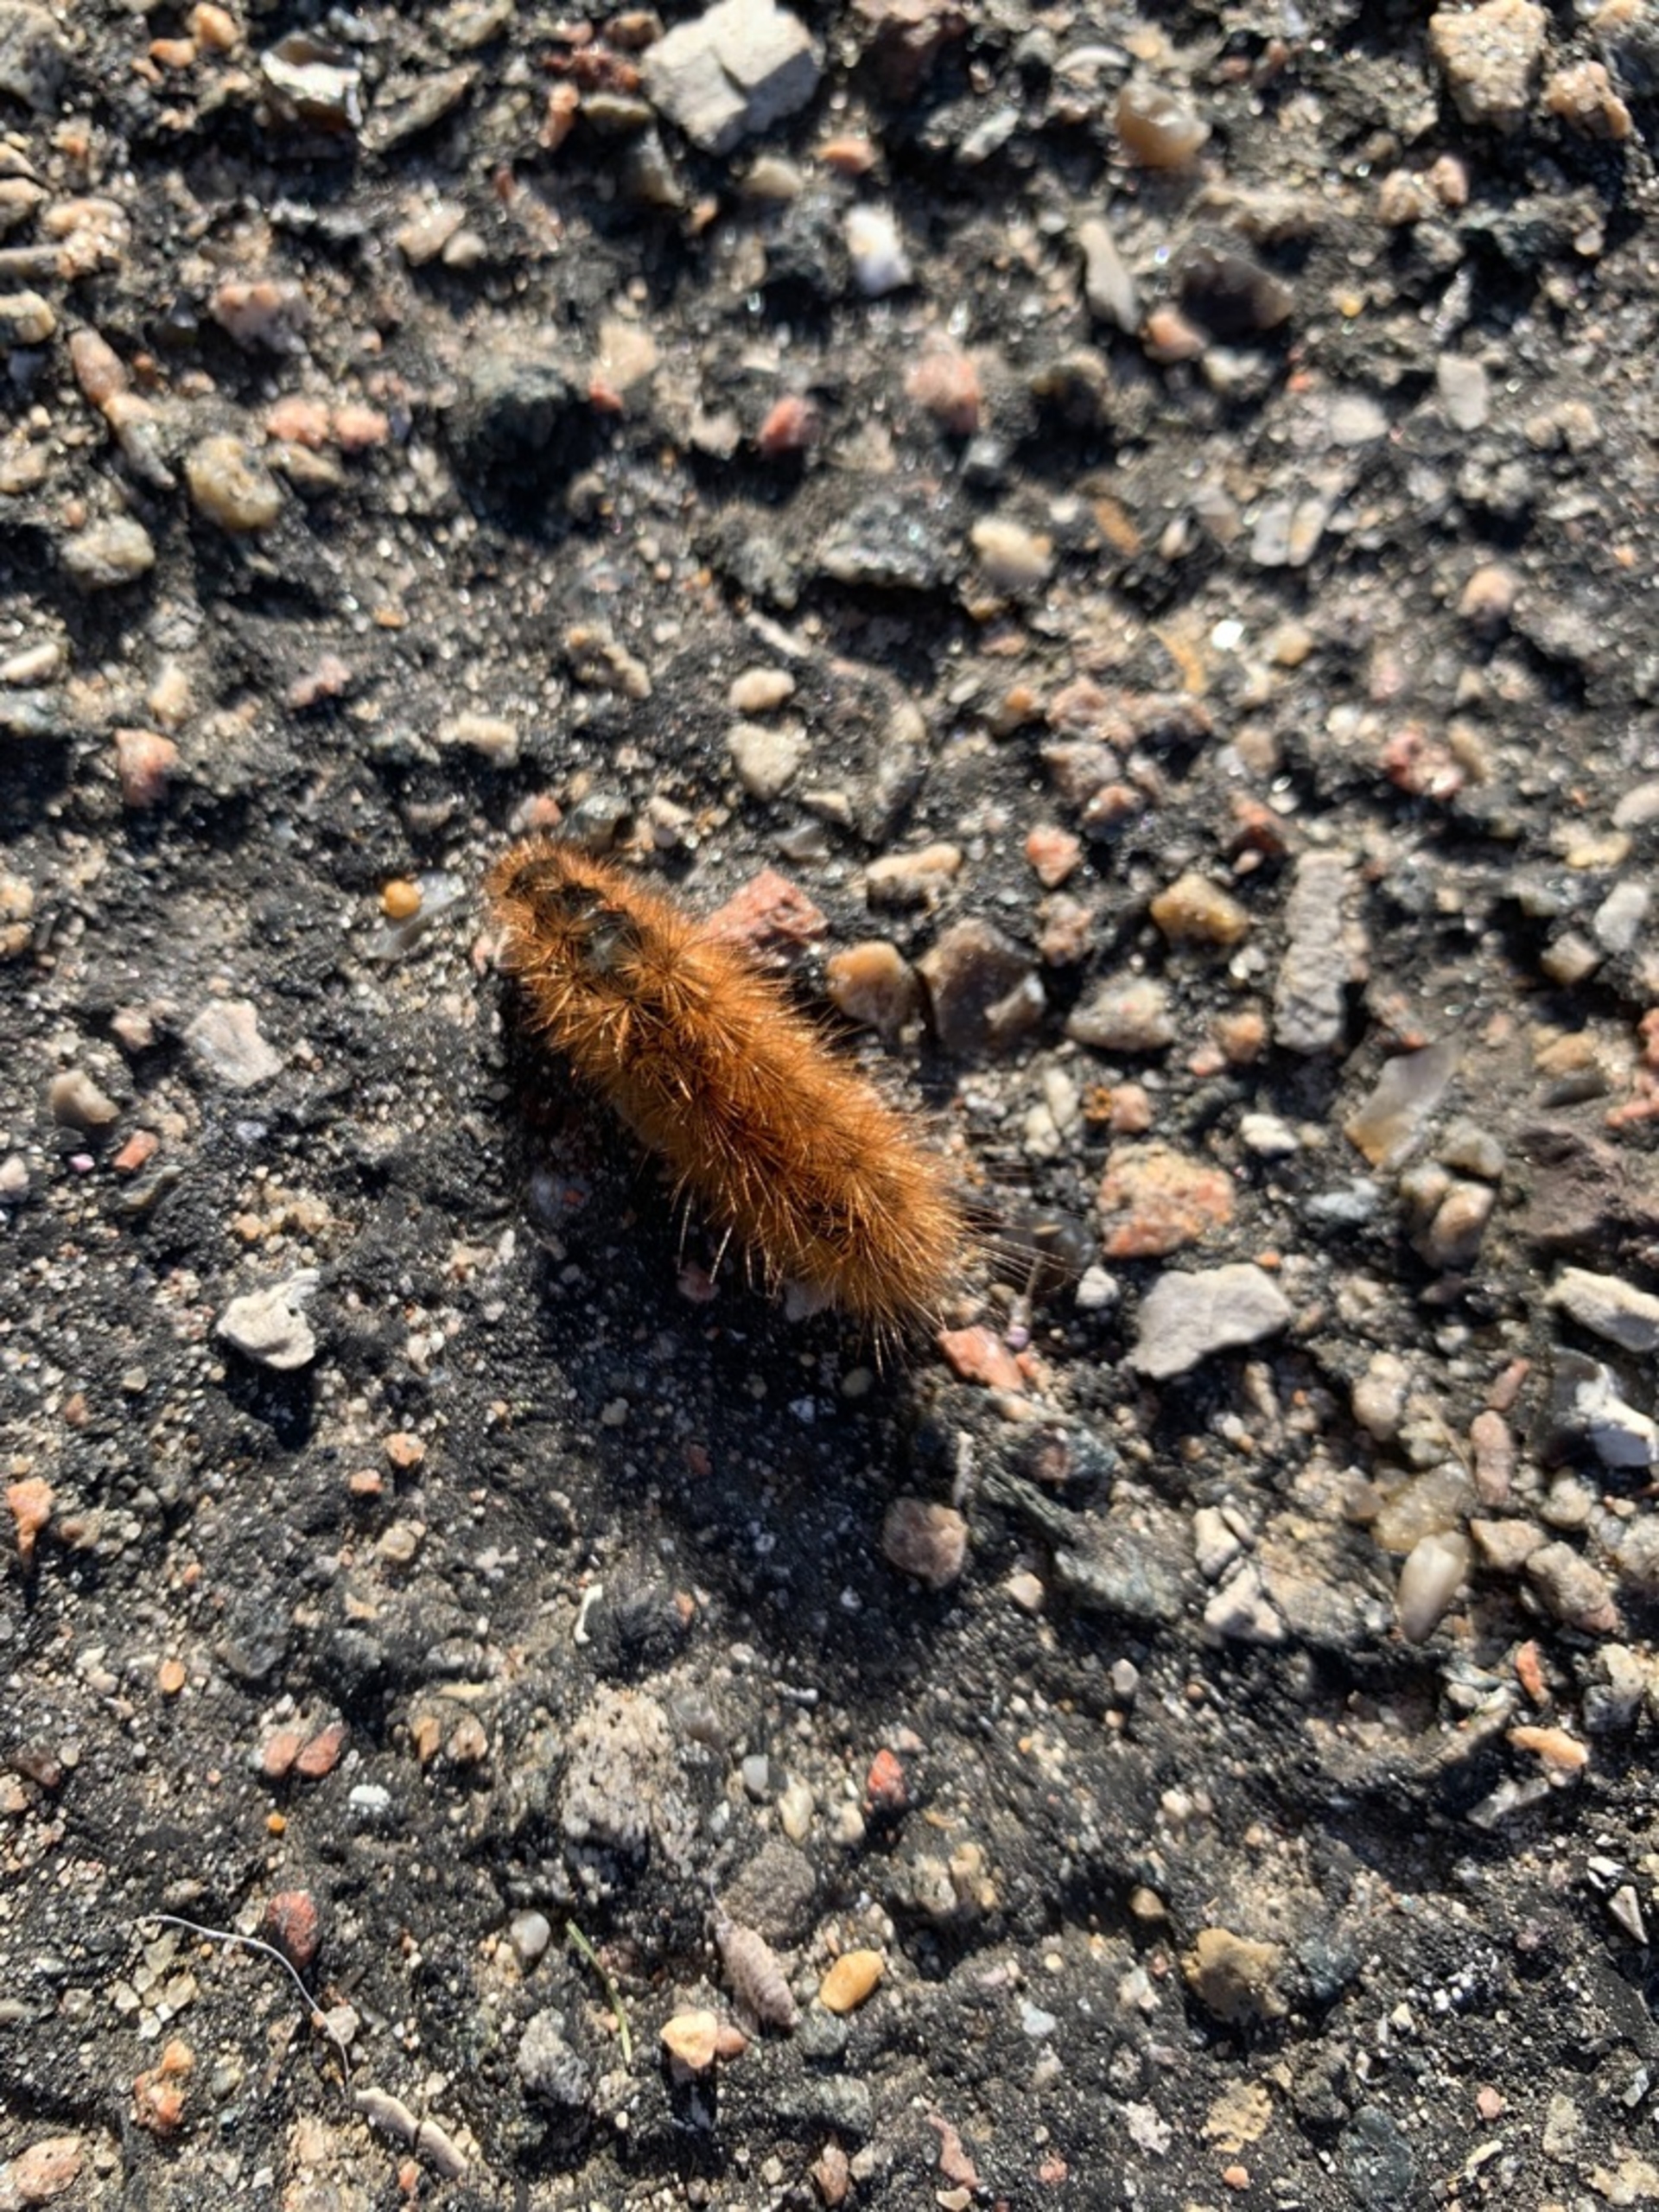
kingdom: Animalia
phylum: Arthropoda
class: Insecta
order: Lepidoptera
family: Erebidae
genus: Phragmatobia
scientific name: Phragmatobia fuliginosa
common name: Kanelbjørn
